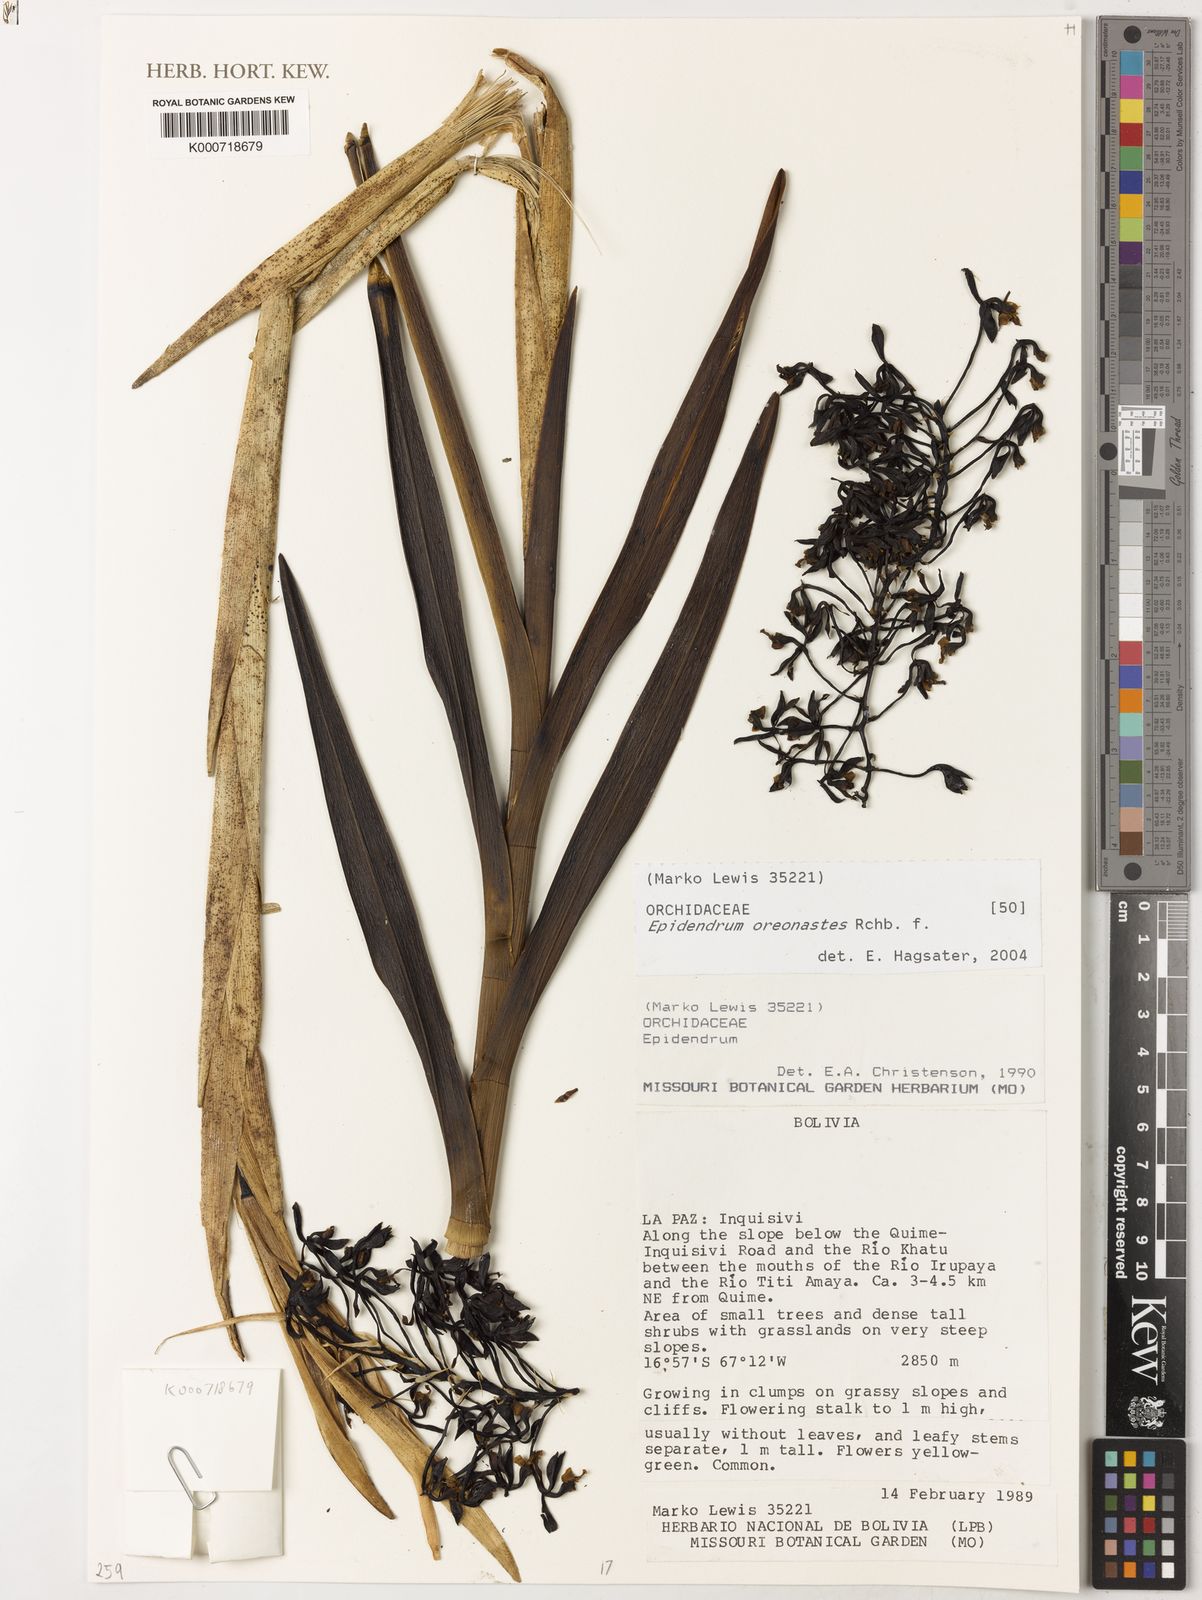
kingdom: Plantae
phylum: Tracheophyta
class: Liliopsida
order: Asparagales
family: Orchidaceae
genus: Epidendrum
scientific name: Epidendrum oreonastes
